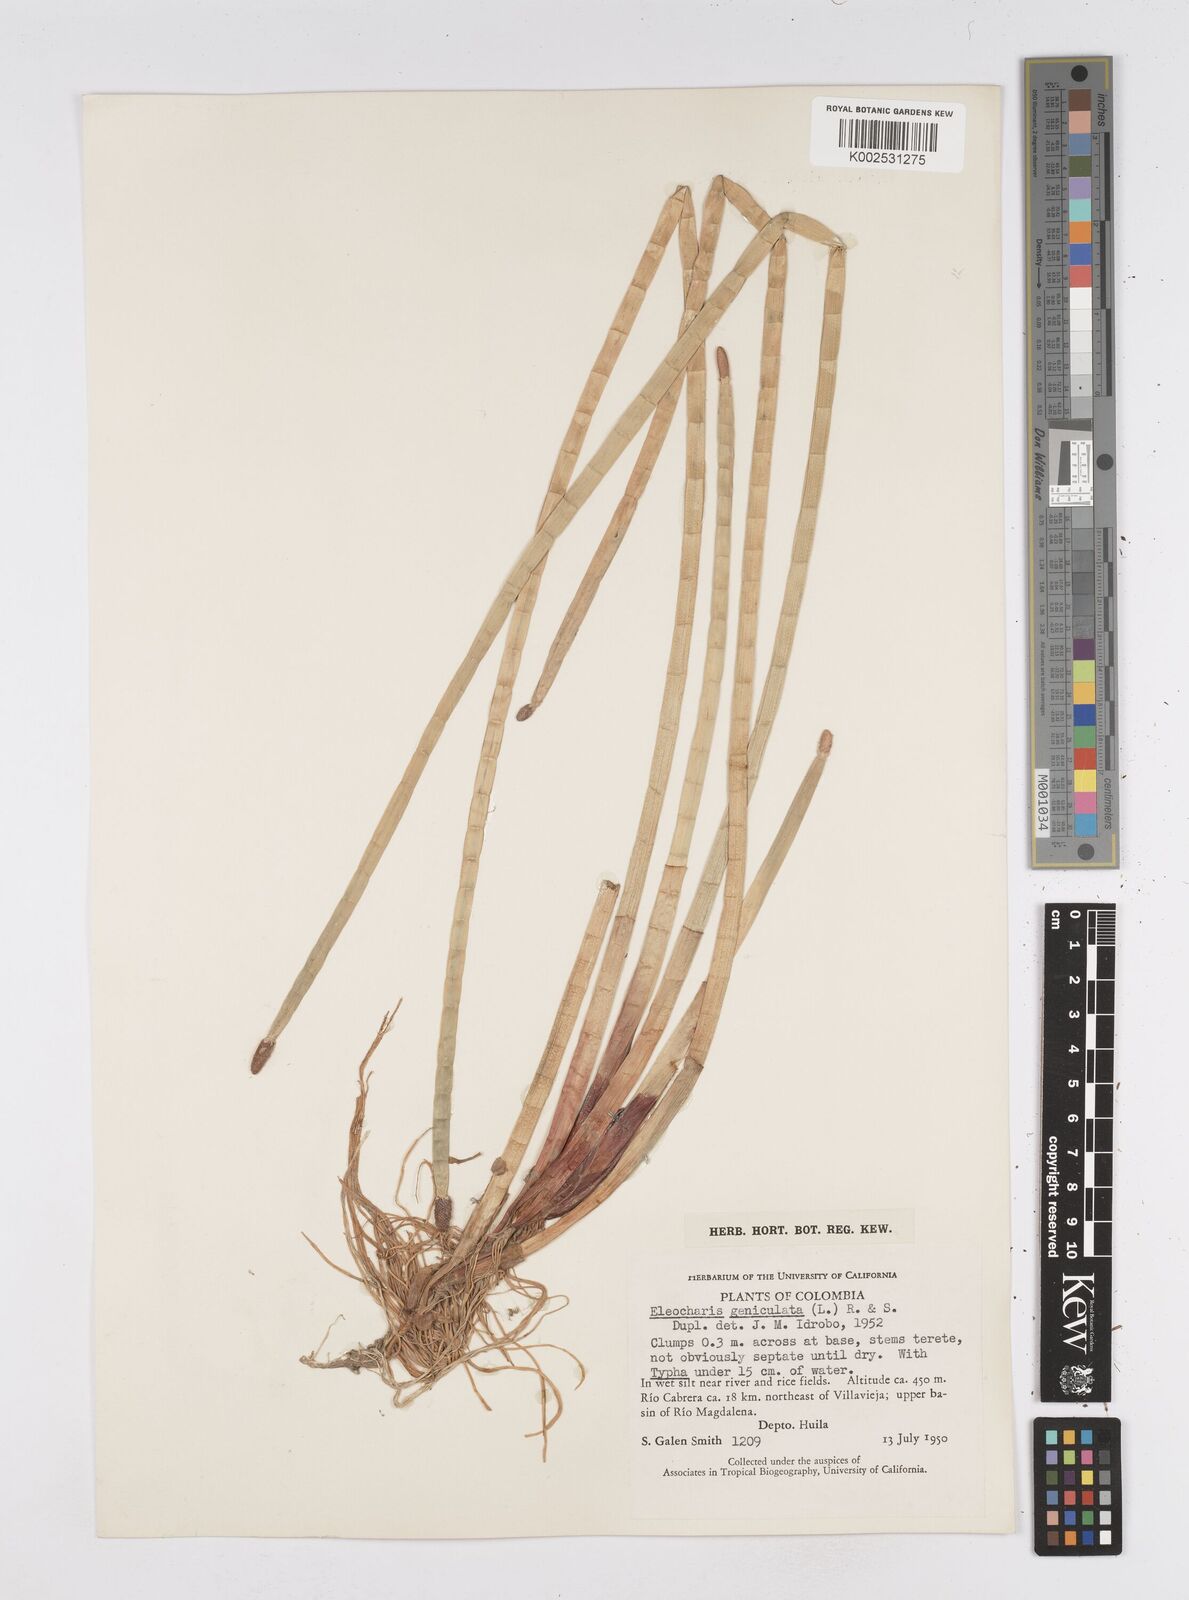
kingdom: Plantae
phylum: Tracheophyta
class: Liliopsida
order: Poales
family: Cyperaceae
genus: Eleocharis
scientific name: Eleocharis elegans
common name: Elegant spike-rush
